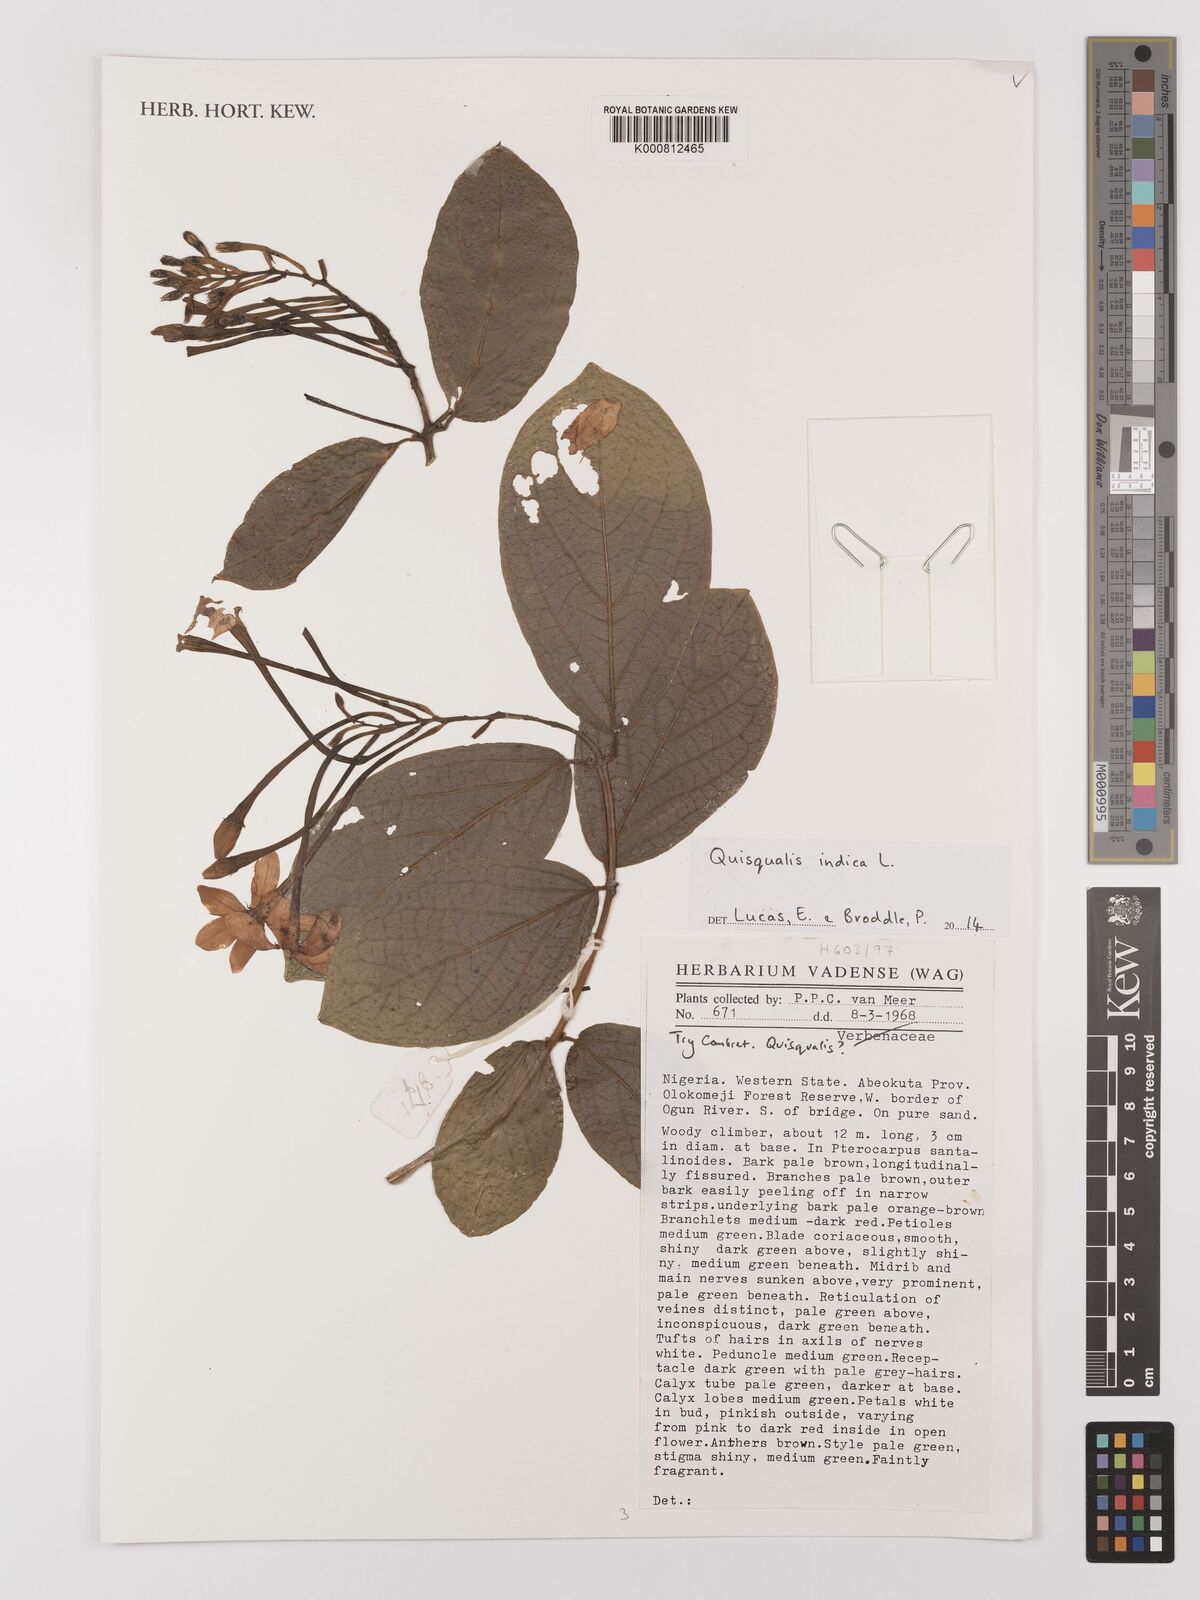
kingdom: Plantae
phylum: Tracheophyta
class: Magnoliopsida
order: Myrtales
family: Combretaceae
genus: Combretum
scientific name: Combretum indicum
